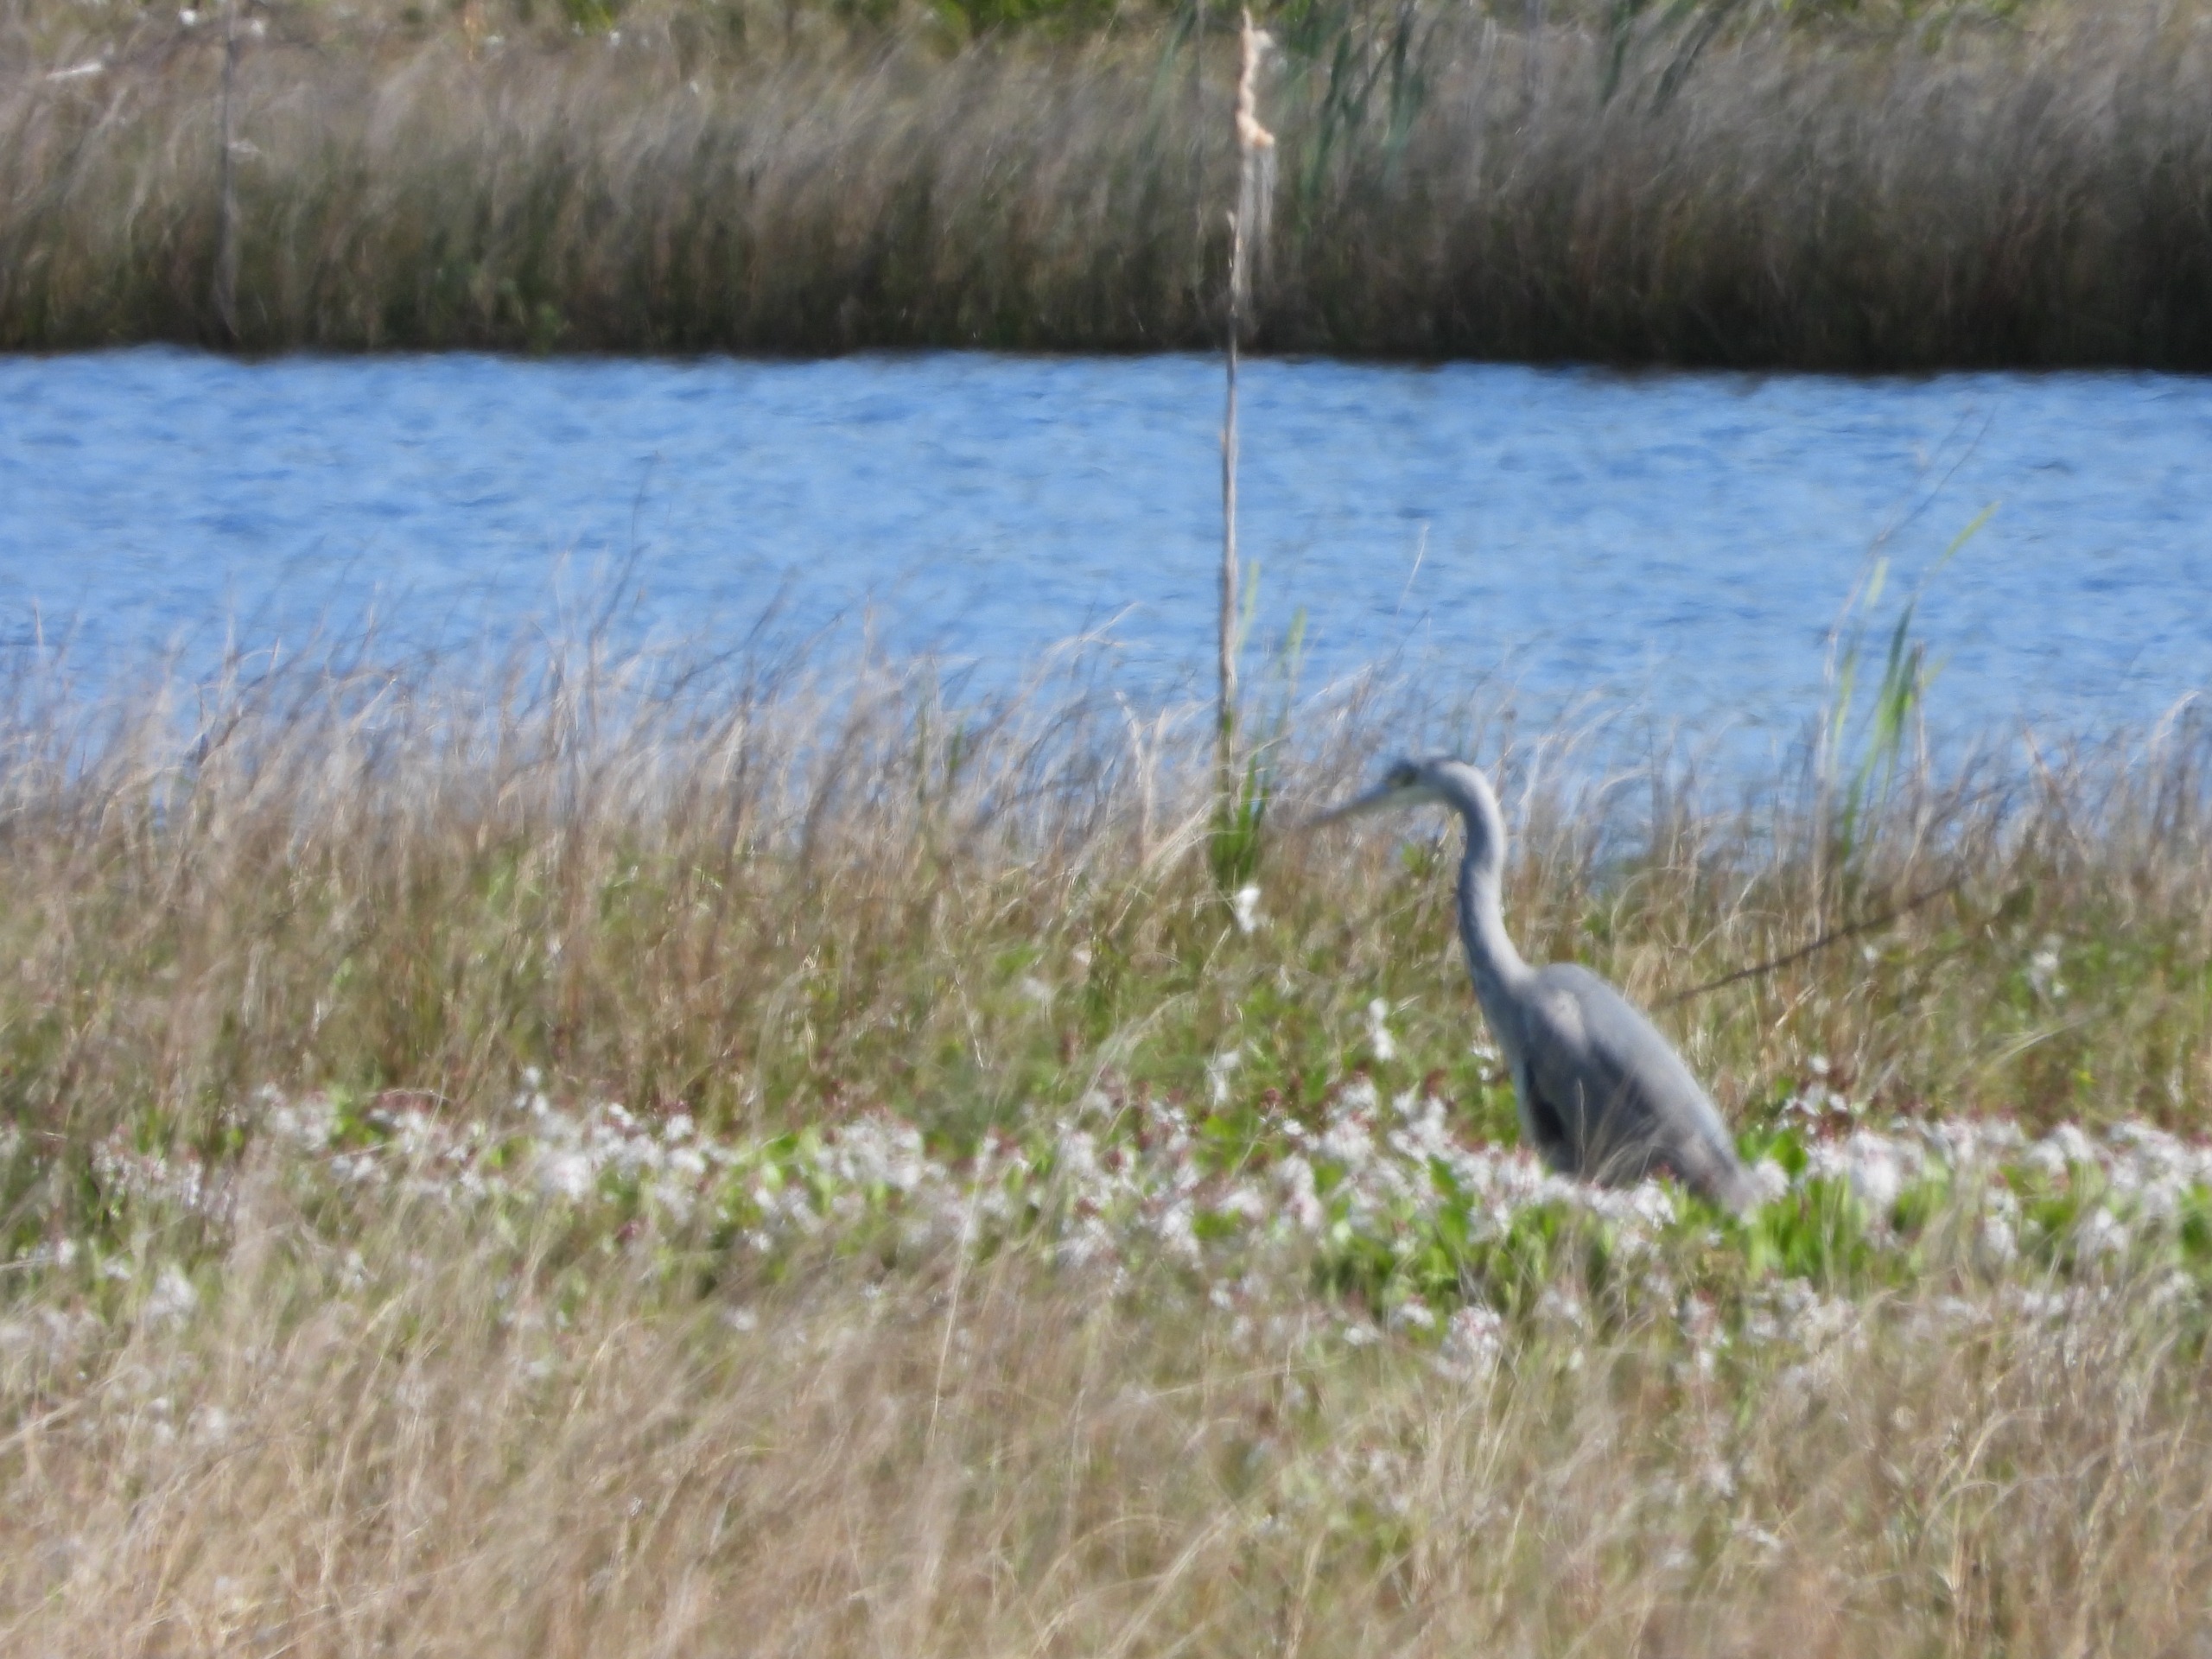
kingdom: Animalia
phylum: Chordata
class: Aves
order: Pelecaniformes
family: Ardeidae
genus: Ardea
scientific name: Ardea cinerea
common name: Fiskehejre
